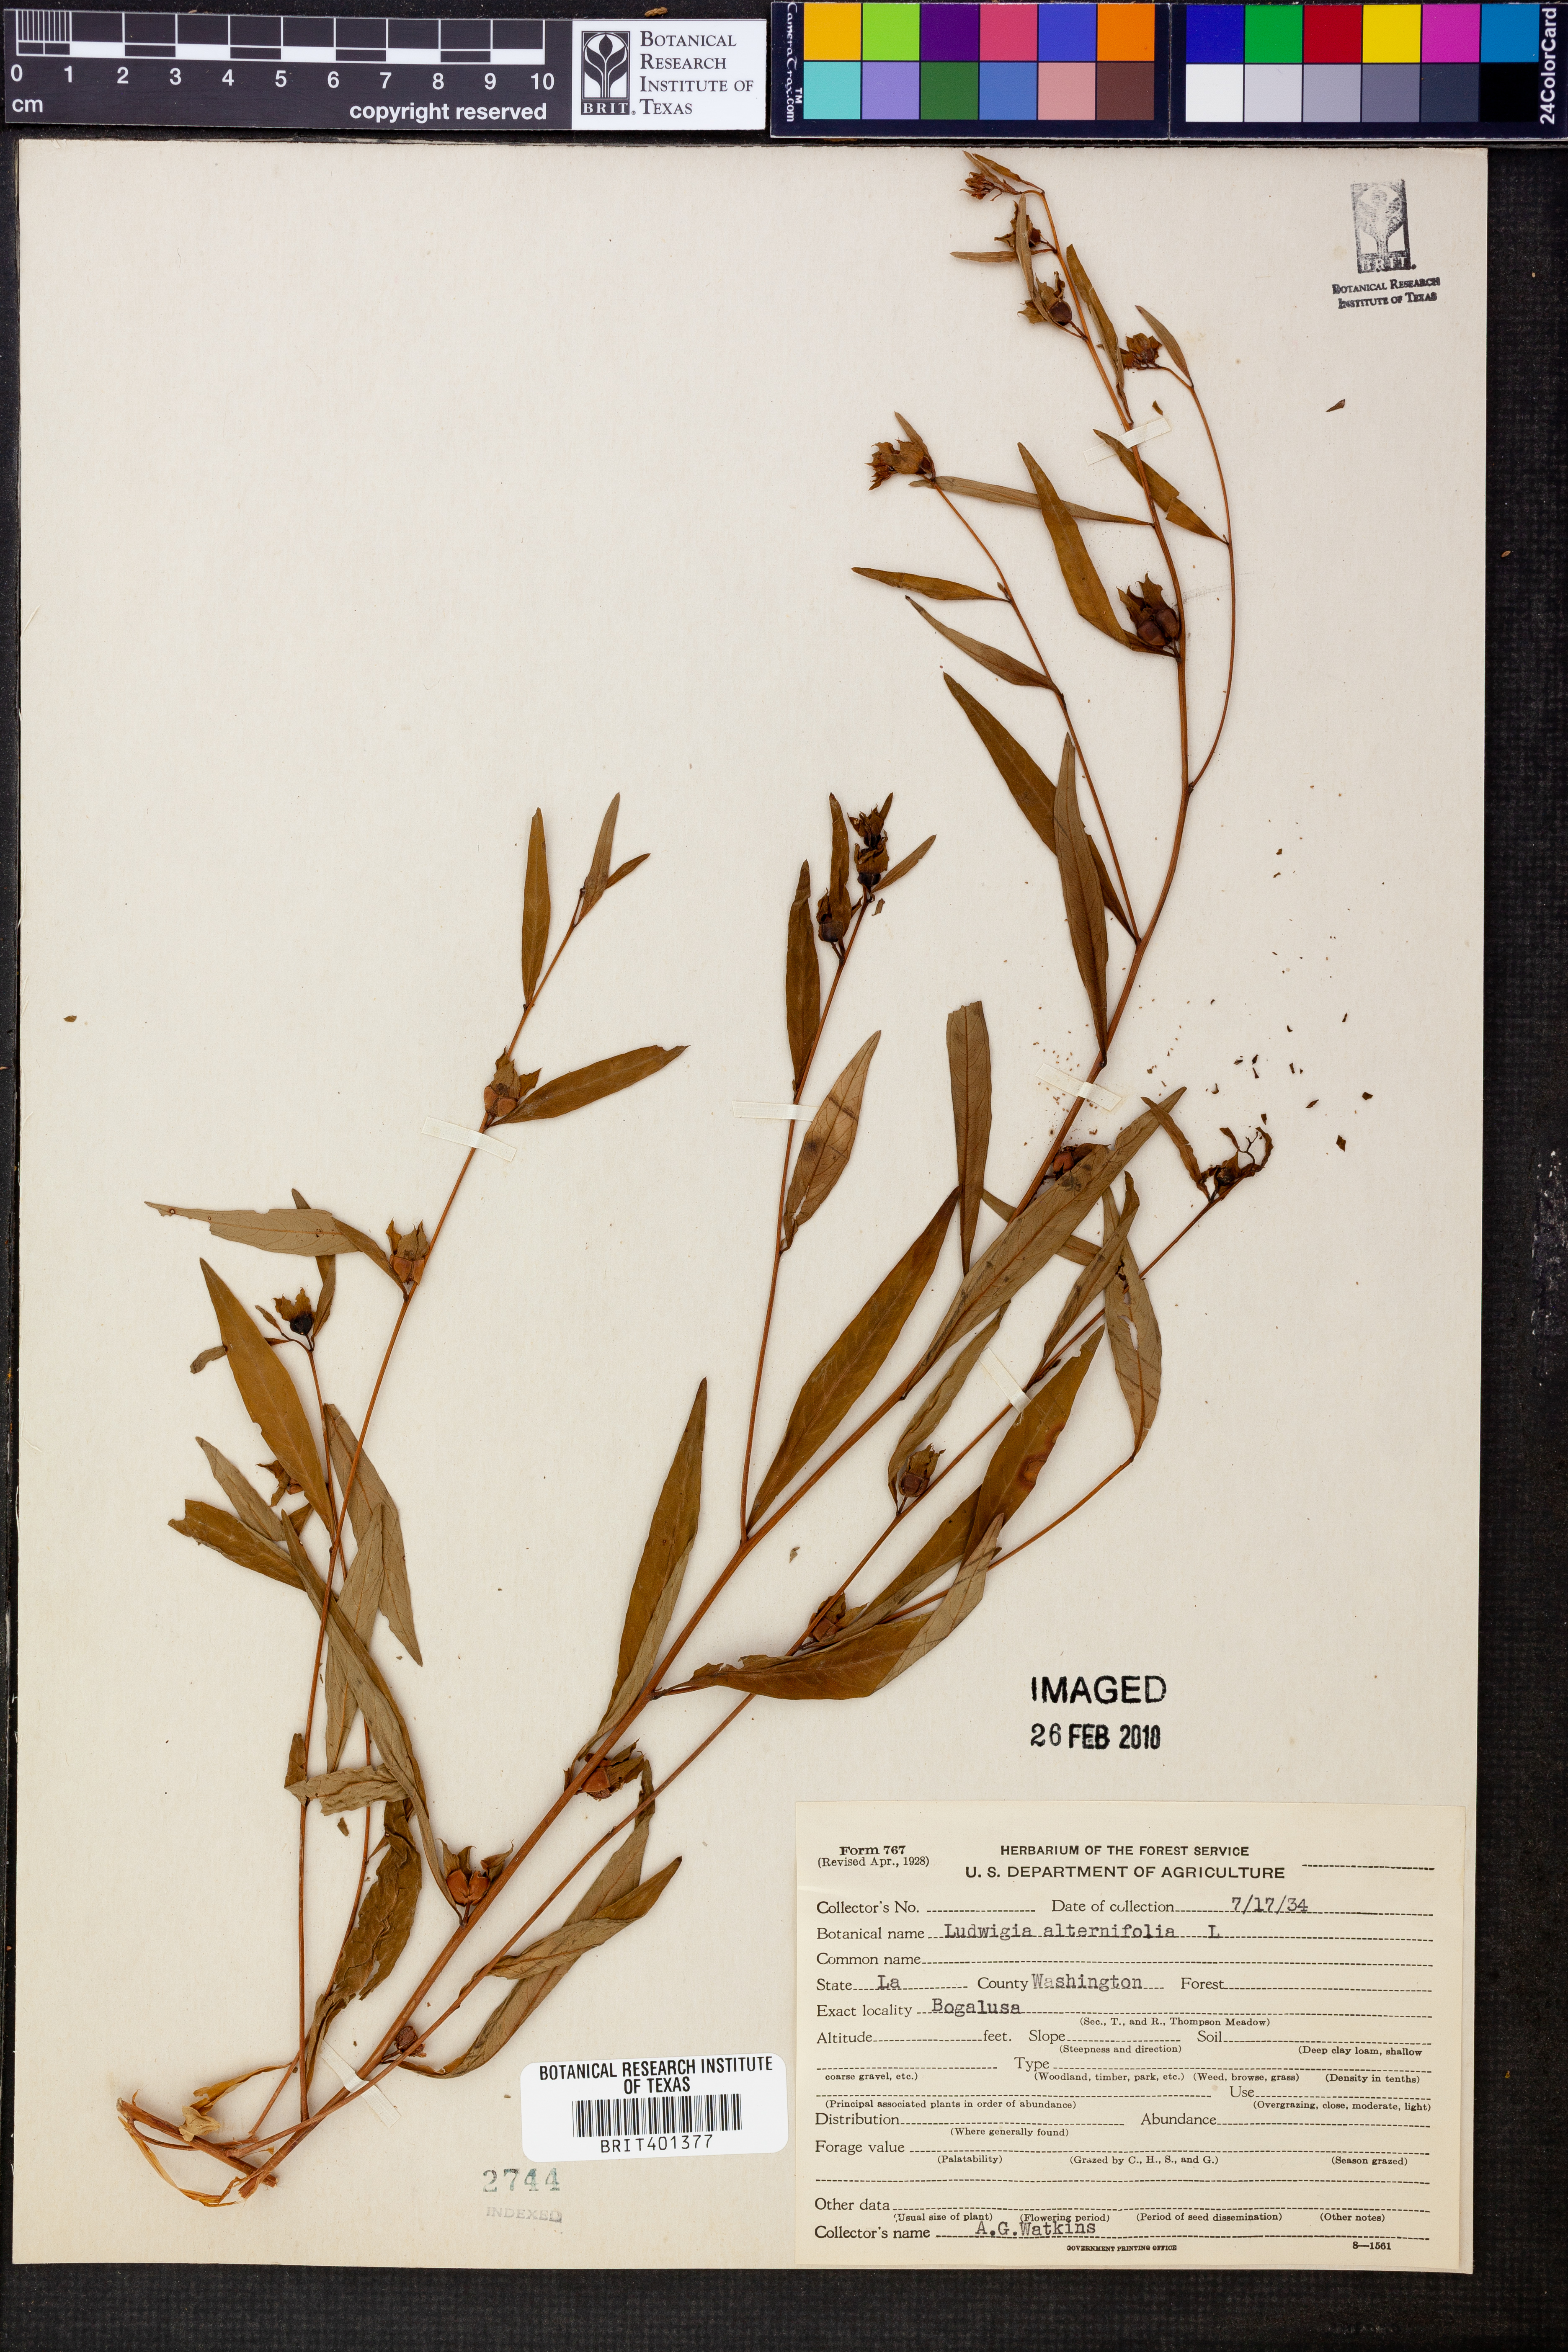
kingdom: Plantae
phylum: Tracheophyta
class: Magnoliopsida
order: Myrtales
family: Onagraceae
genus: Ludwigia
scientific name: Ludwigia alternifolia
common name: Rattlebox
